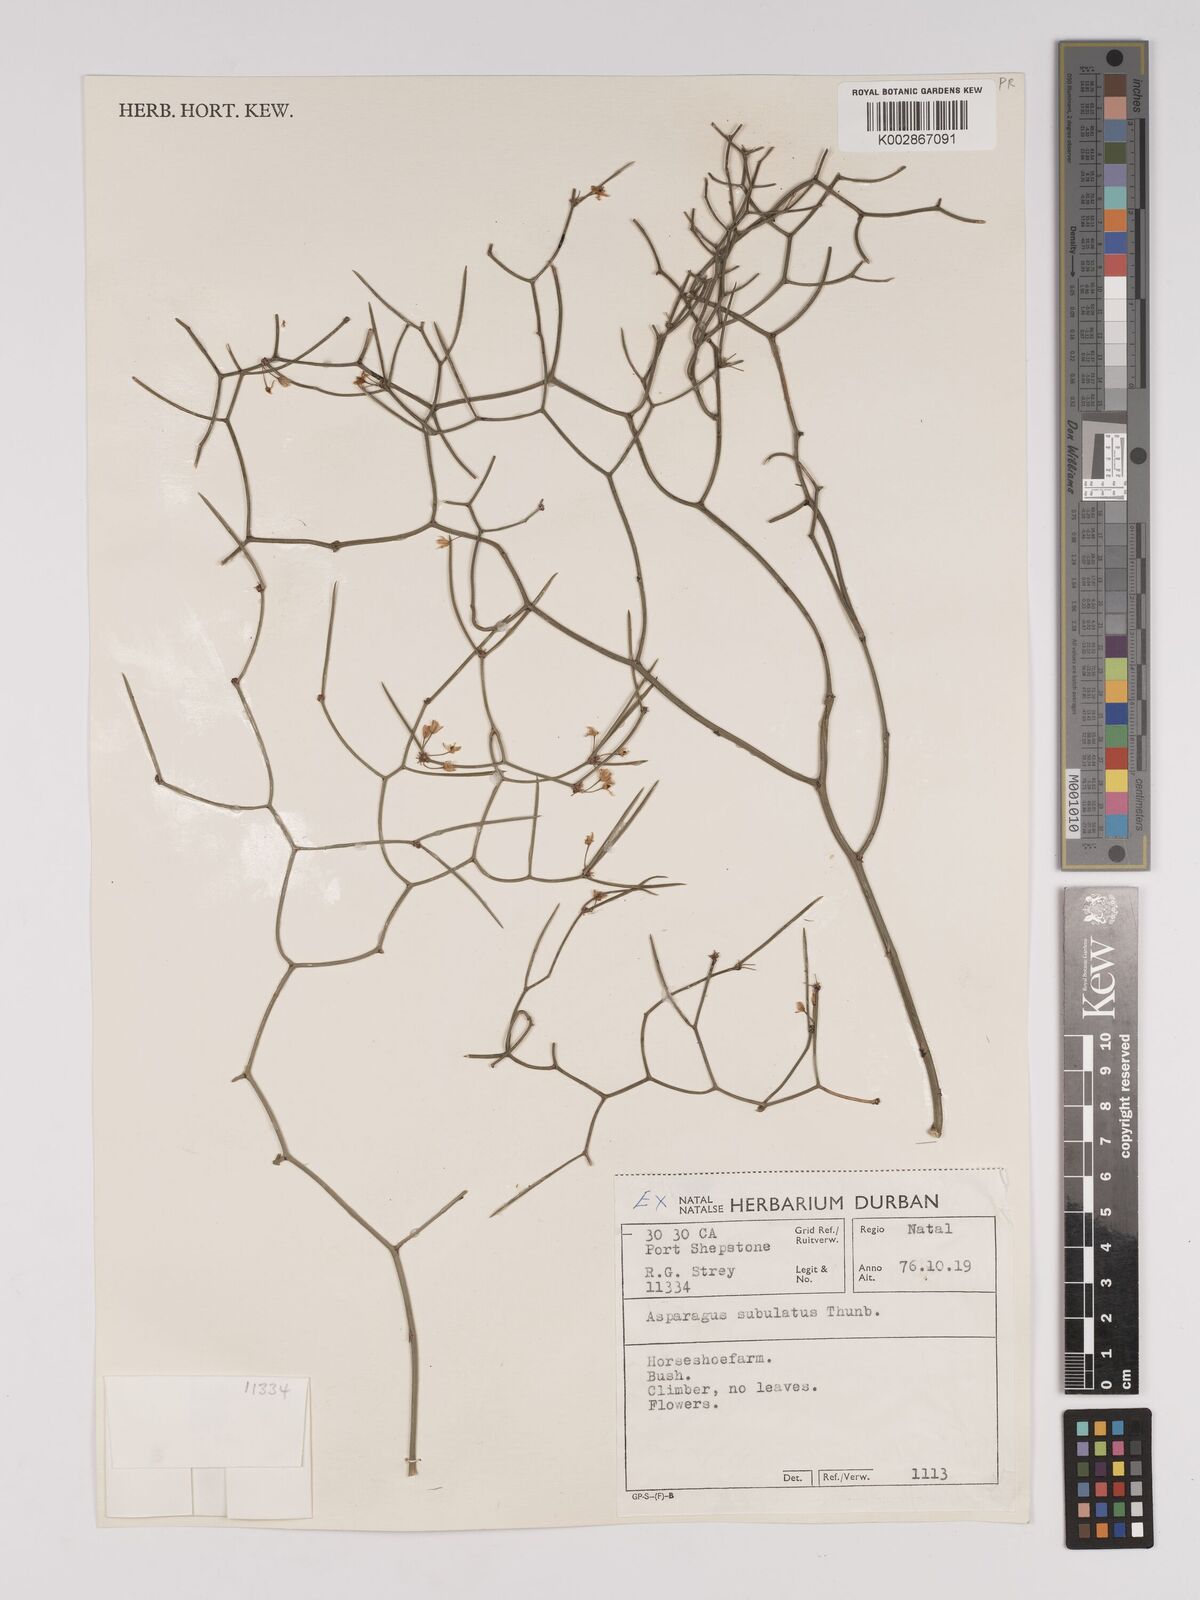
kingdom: Plantae
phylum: Tracheophyta
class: Liliopsida
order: Asparagales
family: Asparagaceae
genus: Asparagus
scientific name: Asparagus subulatus
